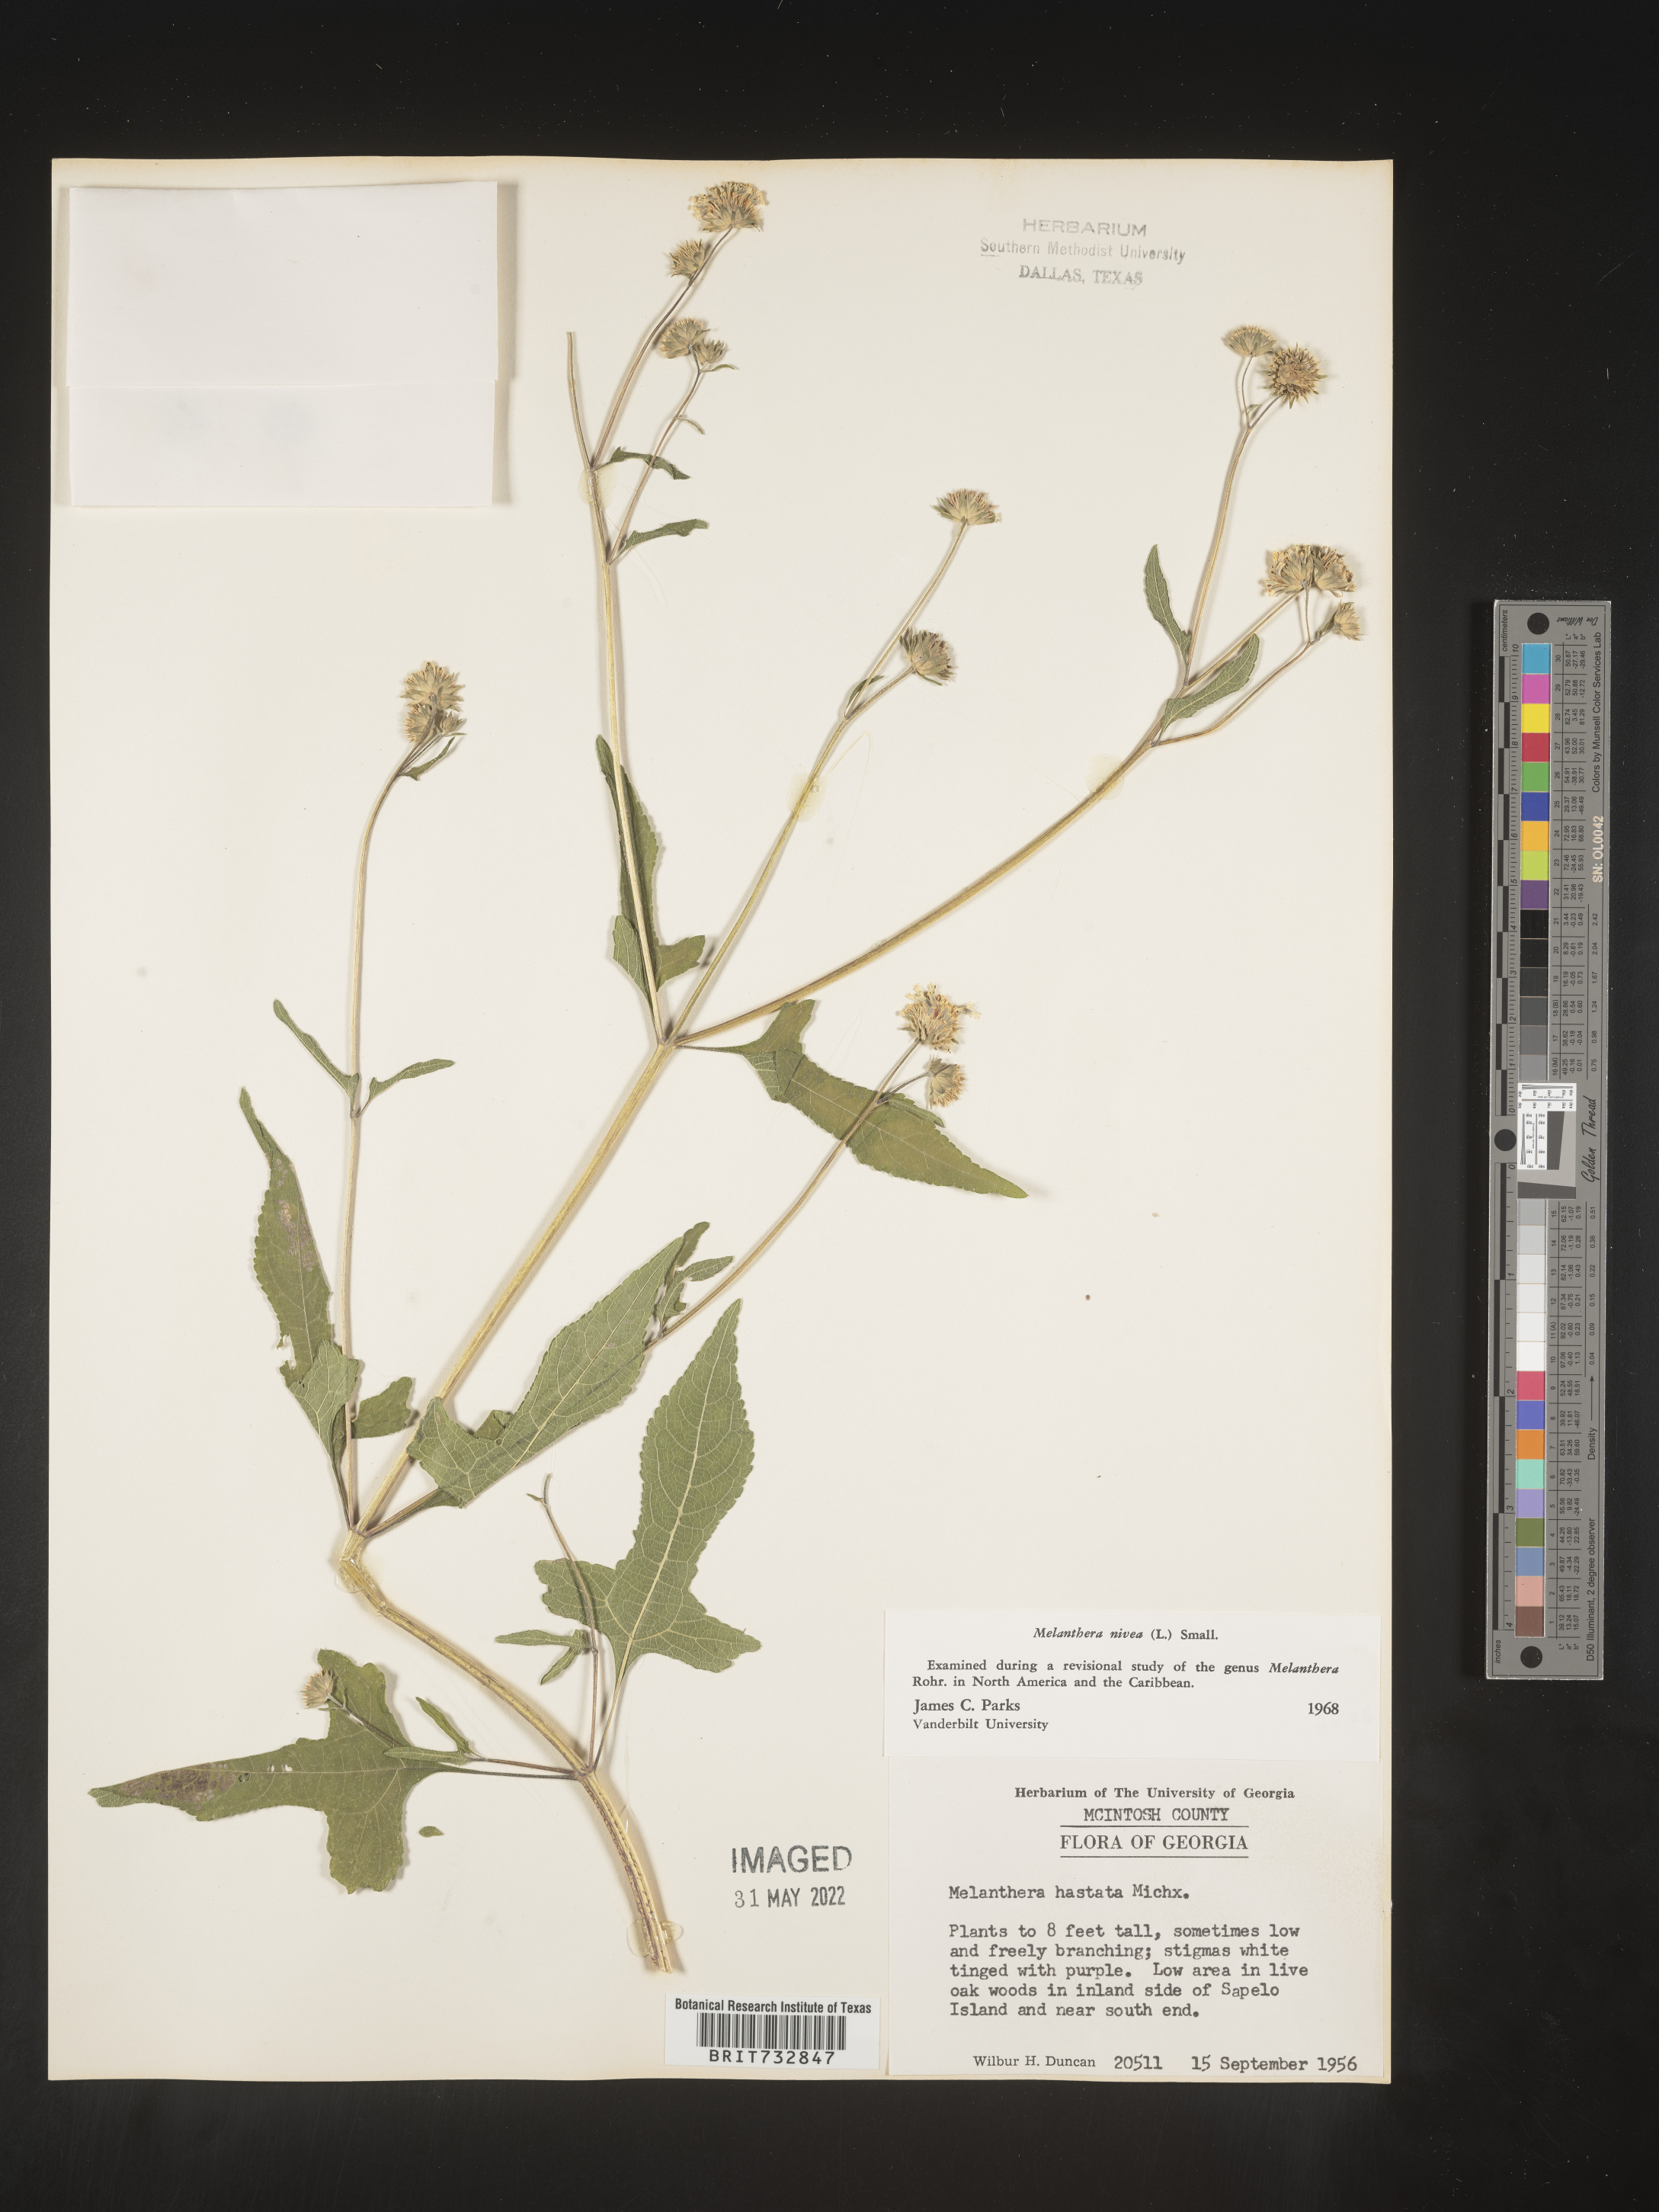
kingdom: Plantae
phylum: Tracheophyta
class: Magnoliopsida
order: Asterales
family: Asteraceae
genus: Melanthera
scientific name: Melanthera nivea
